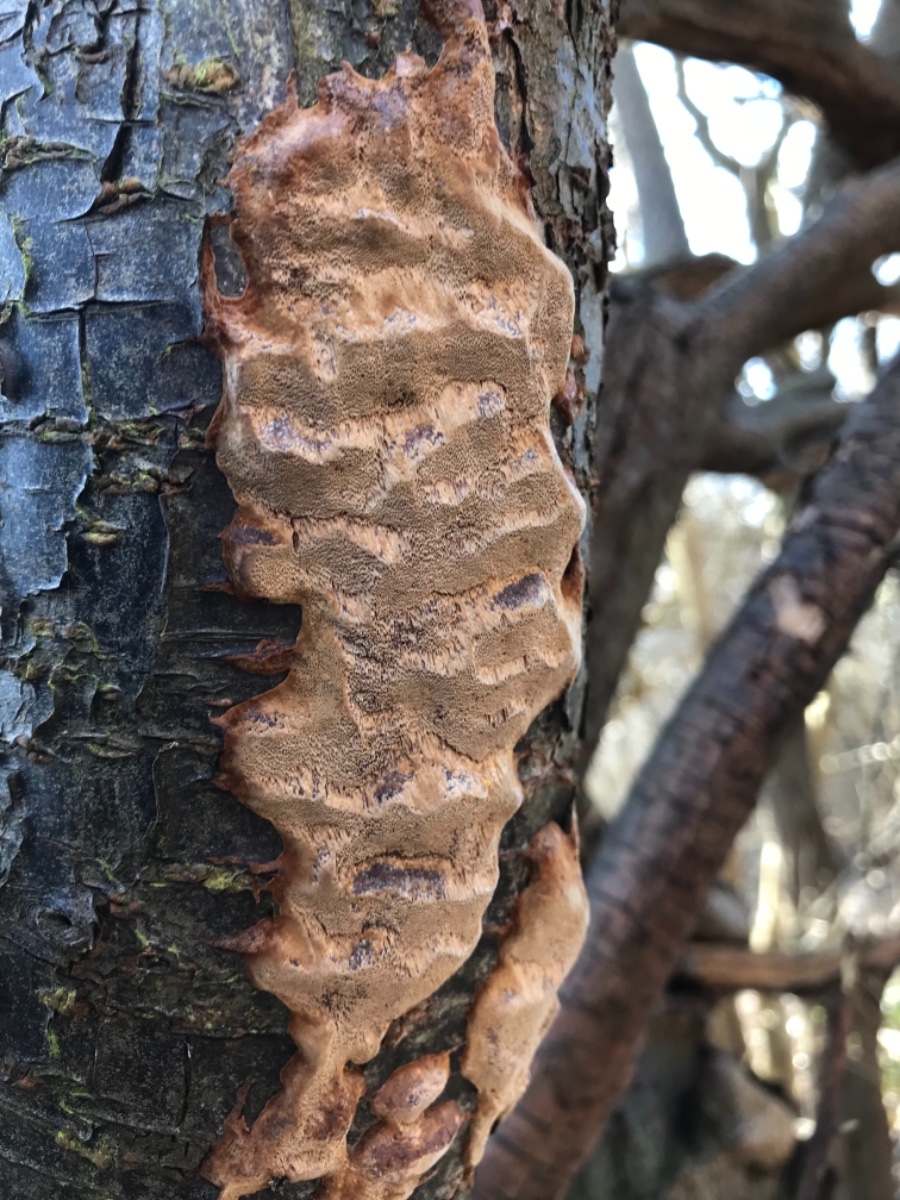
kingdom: Fungi
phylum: Basidiomycota
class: Agaricomycetes
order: Hymenochaetales
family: Hymenochaetaceae
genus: Phellinus
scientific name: Phellinus pomaceus
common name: blomme-ildporesvamp
